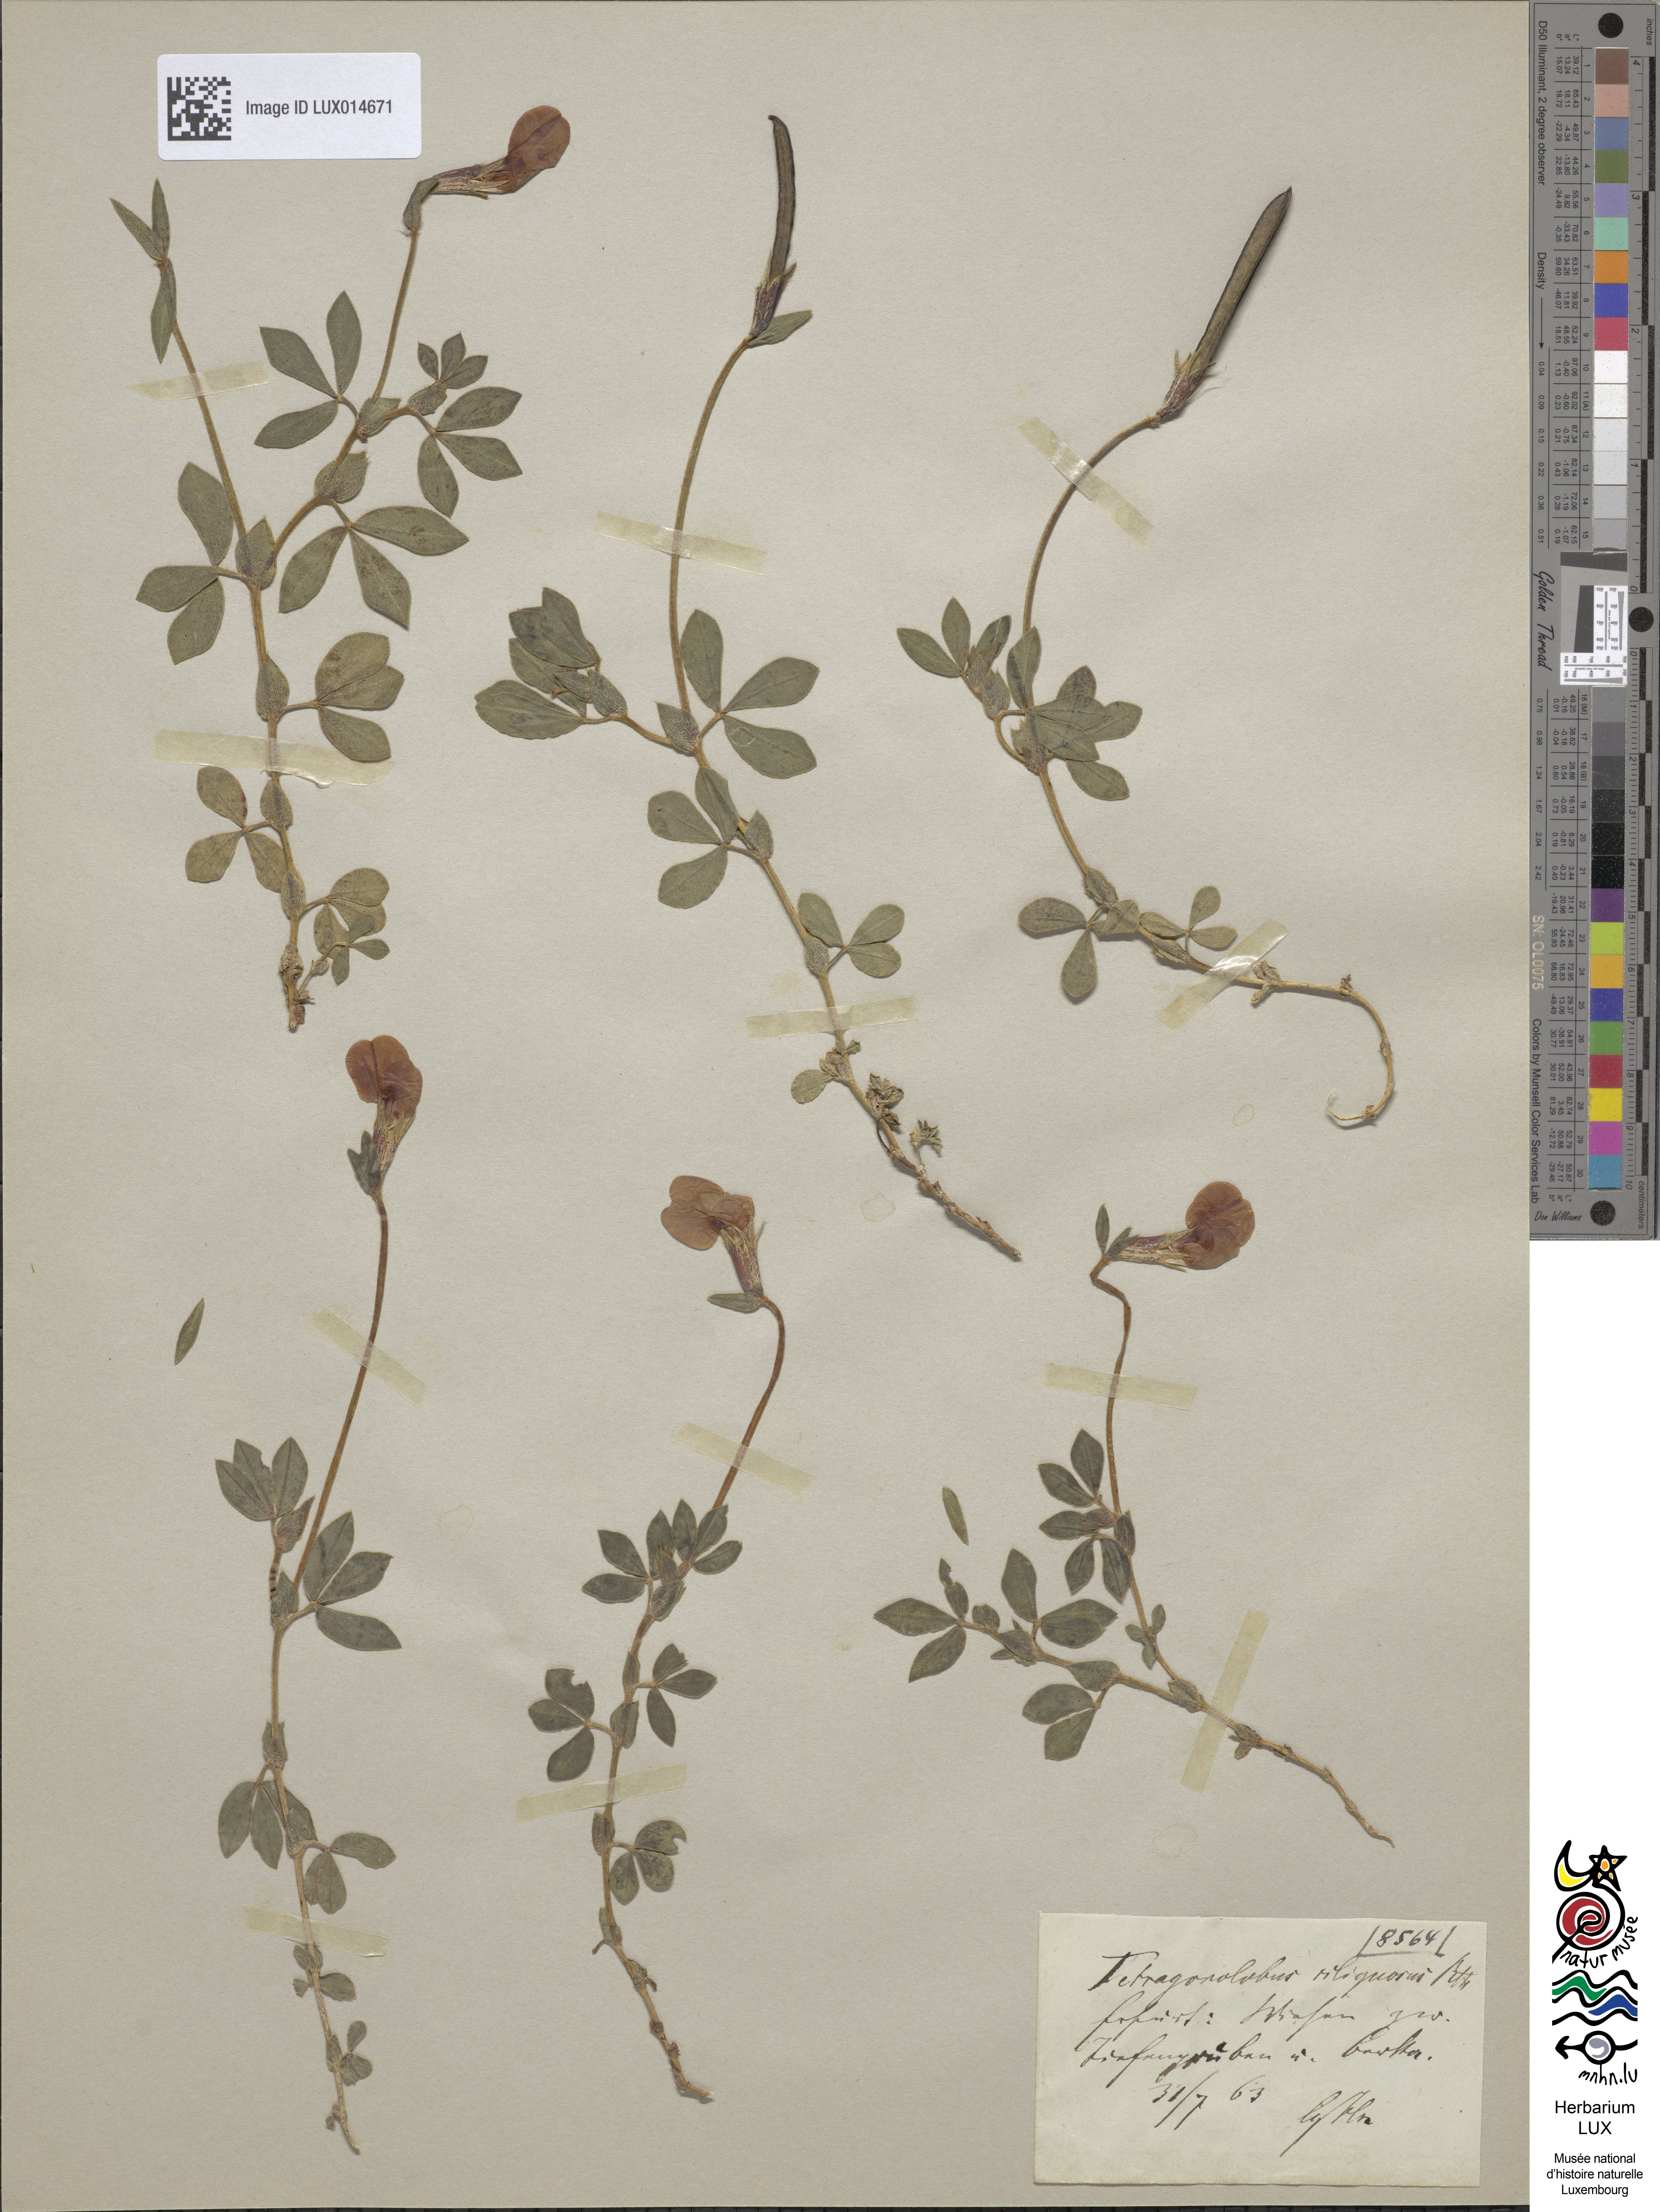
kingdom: Plantae
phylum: Tracheophyta
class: Magnoliopsida
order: Fabales
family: Fabaceae
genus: Lotus
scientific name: Lotus maritimus
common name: Dragon's-teeth
